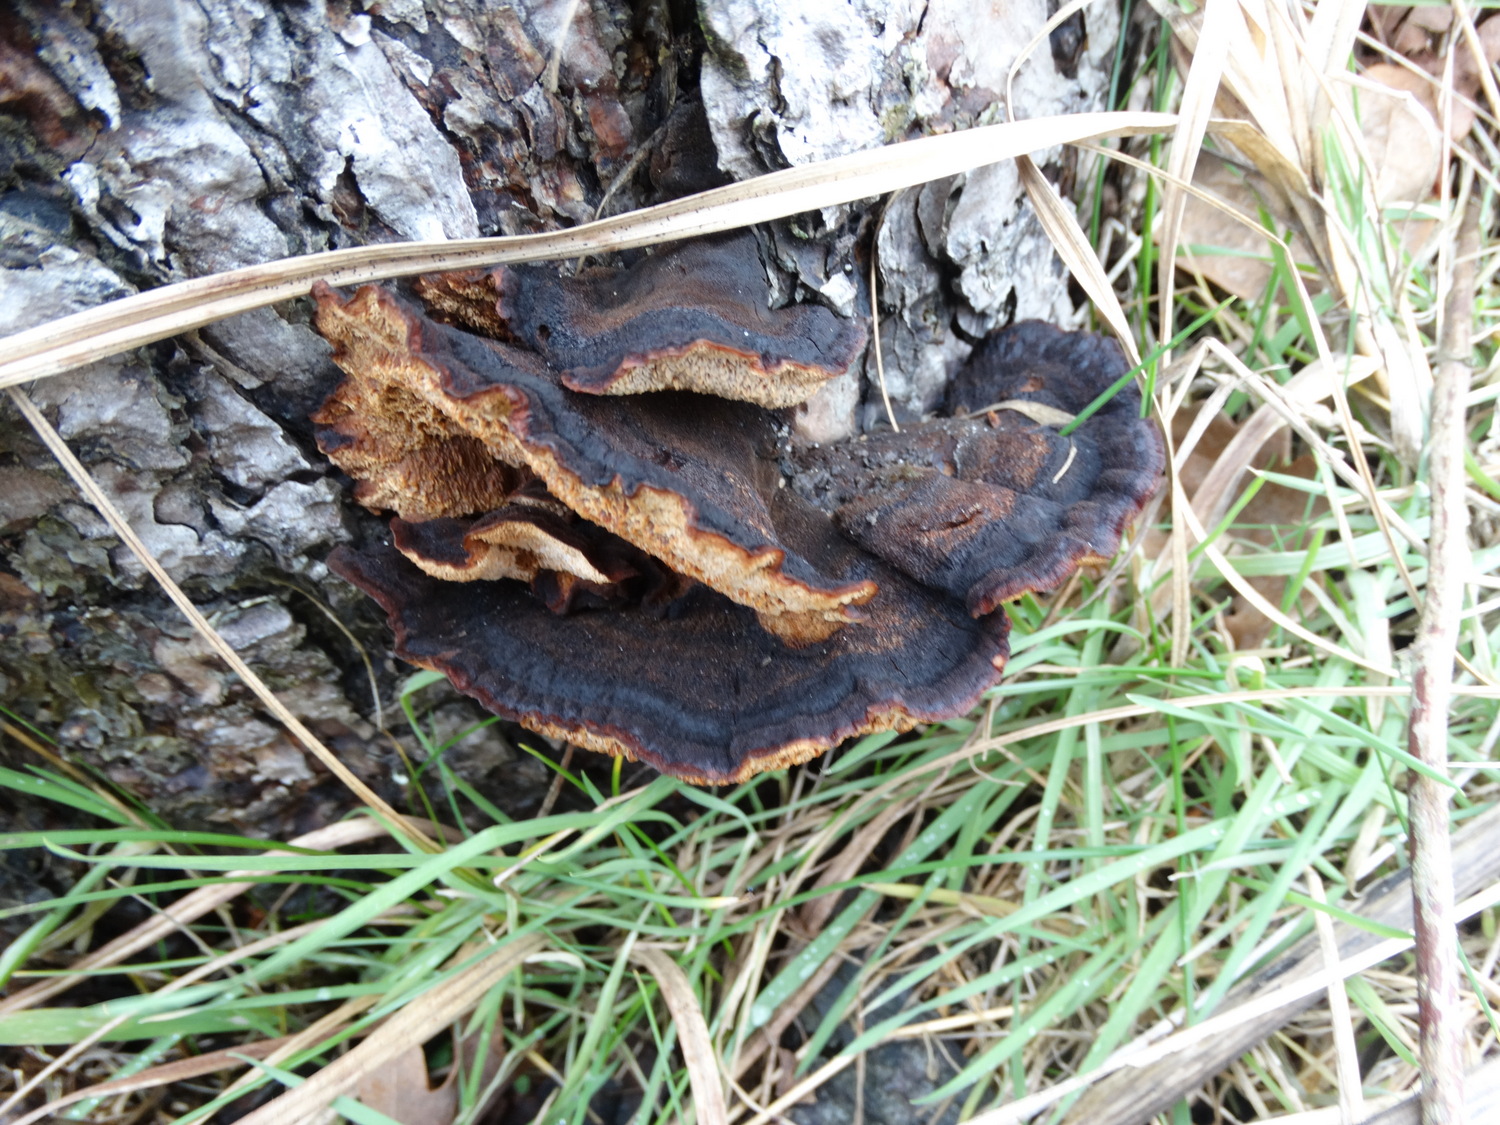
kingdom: Fungi
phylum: Basidiomycota
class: Agaricomycetes
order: Polyporales
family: Ischnodermataceae
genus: Ischnoderma
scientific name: Ischnoderma benzoinum
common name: gran-tjæreporesvamp
